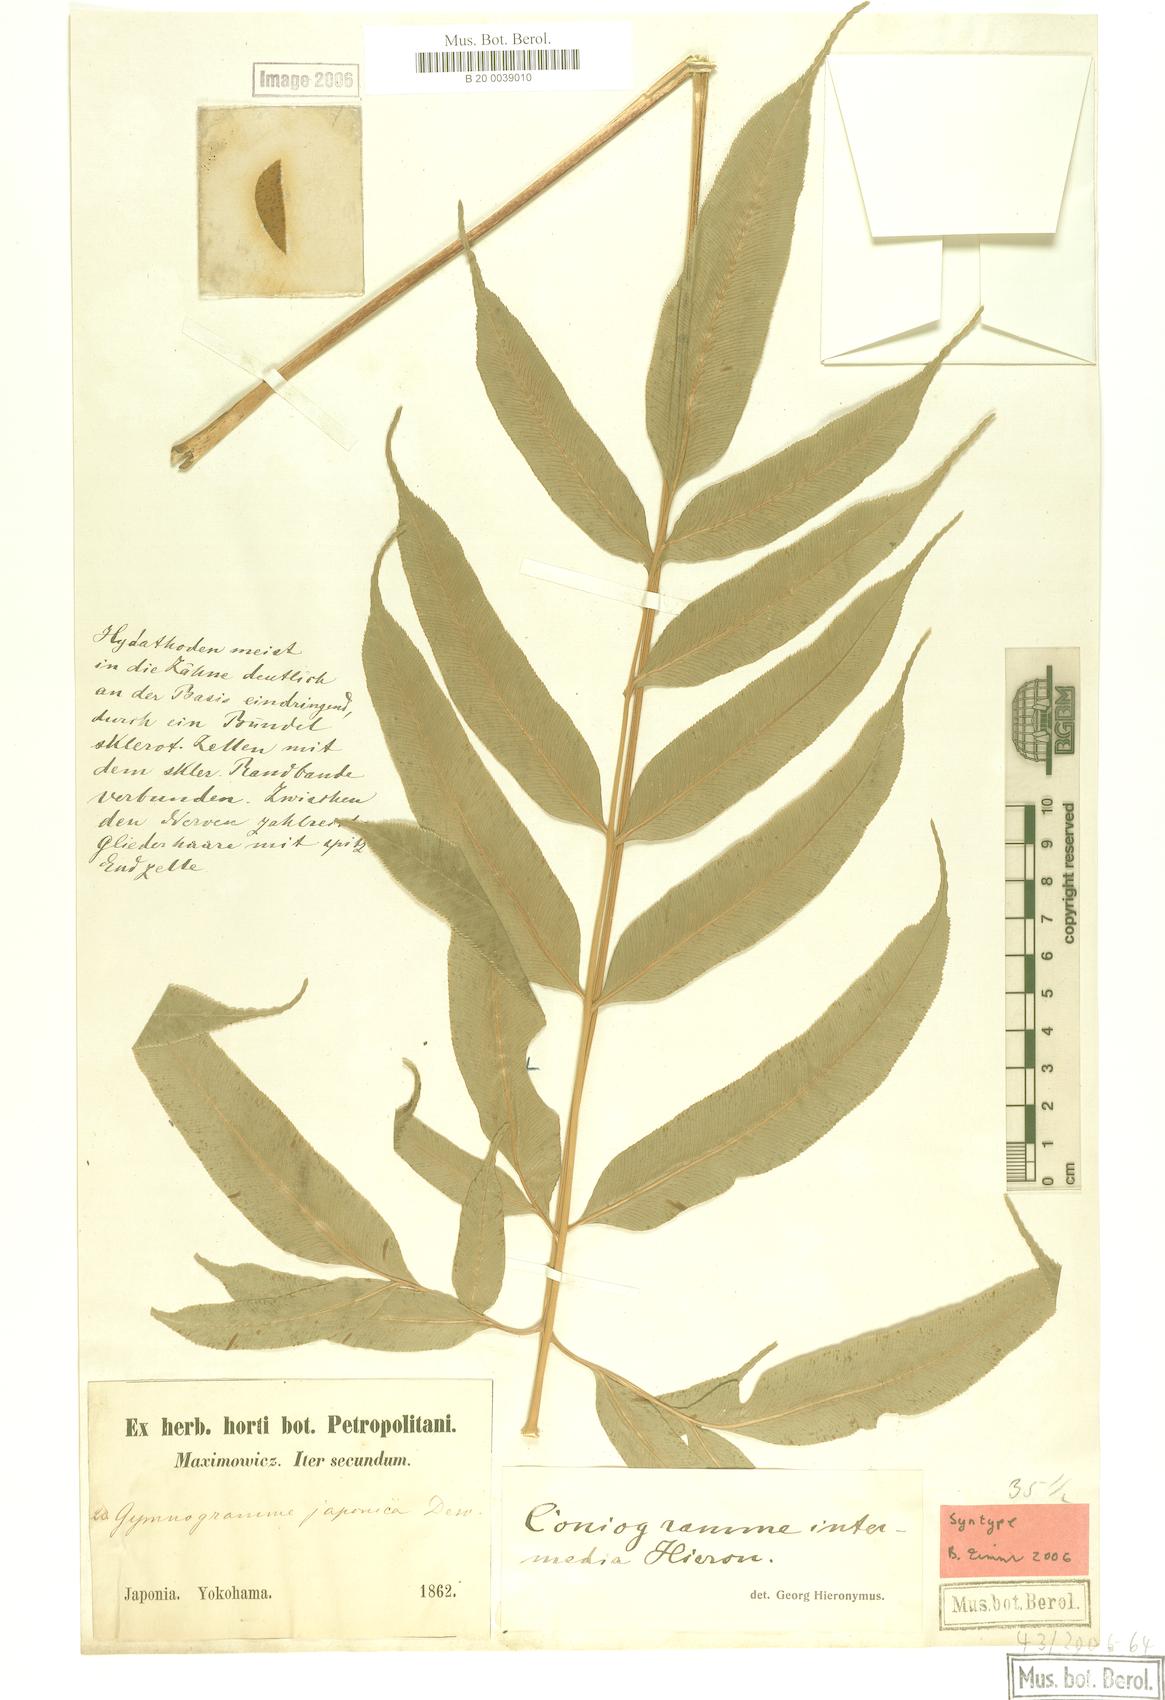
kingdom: Plantae
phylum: Tracheophyta
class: Polypodiopsida
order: Polypodiales
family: Pteridaceae
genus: Coniogramme
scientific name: Coniogramme intermedia
